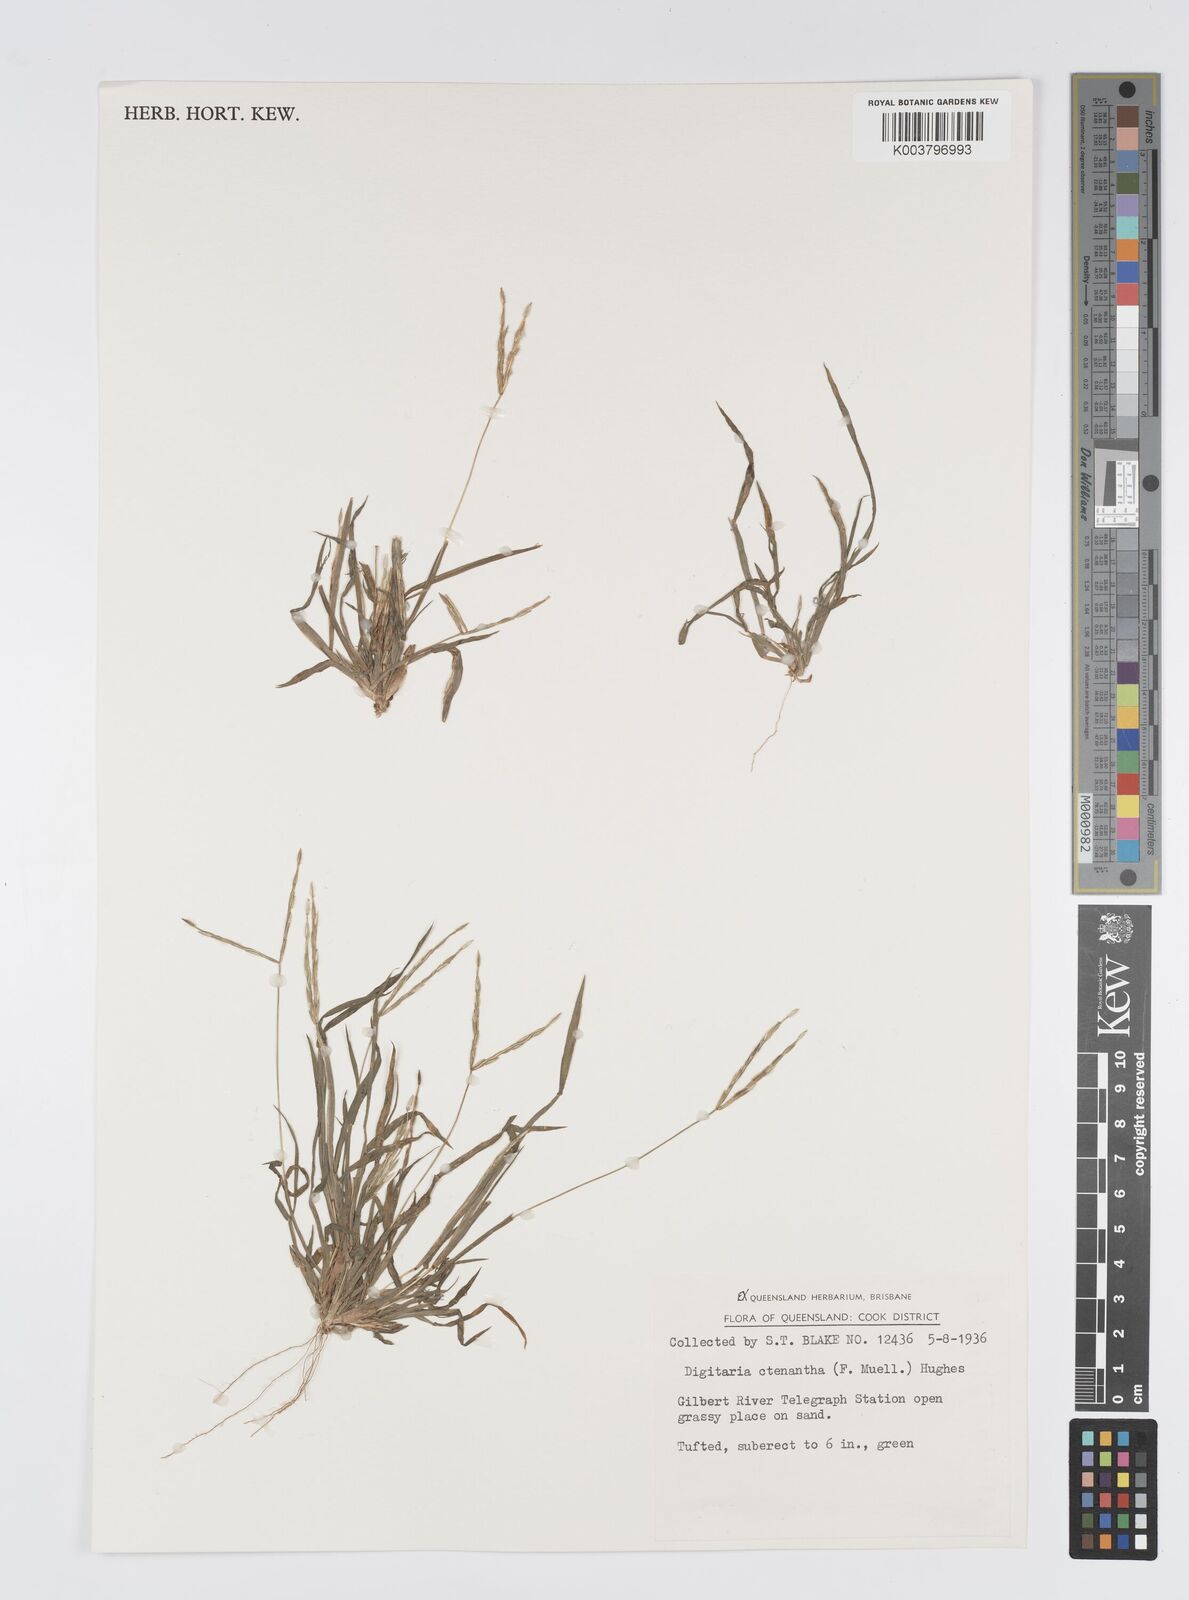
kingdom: Plantae
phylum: Tracheophyta
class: Liliopsida
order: Poales
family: Poaceae
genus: Digitaria
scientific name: Digitaria ctenantha
